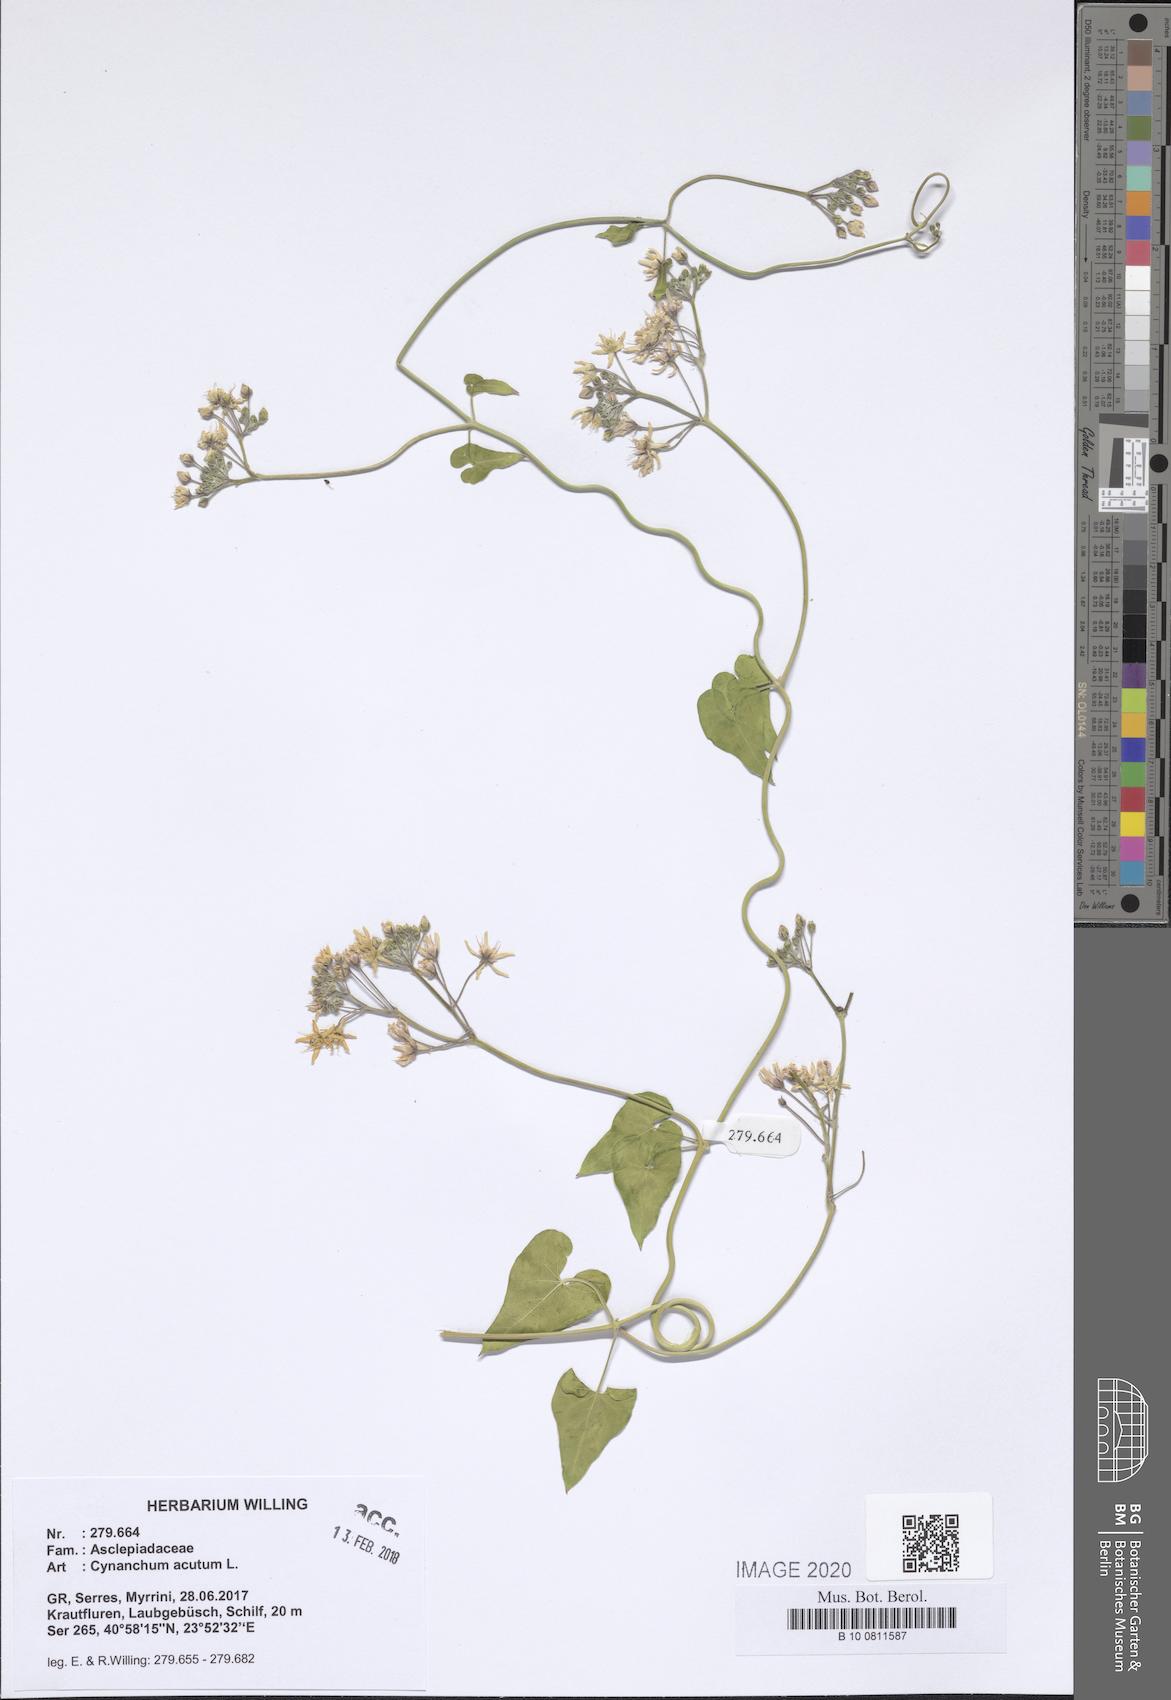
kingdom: Plantae
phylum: Tracheophyta
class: Magnoliopsida
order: Gentianales
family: Apocynaceae
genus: Cynanchum
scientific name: Cynanchum acutum
